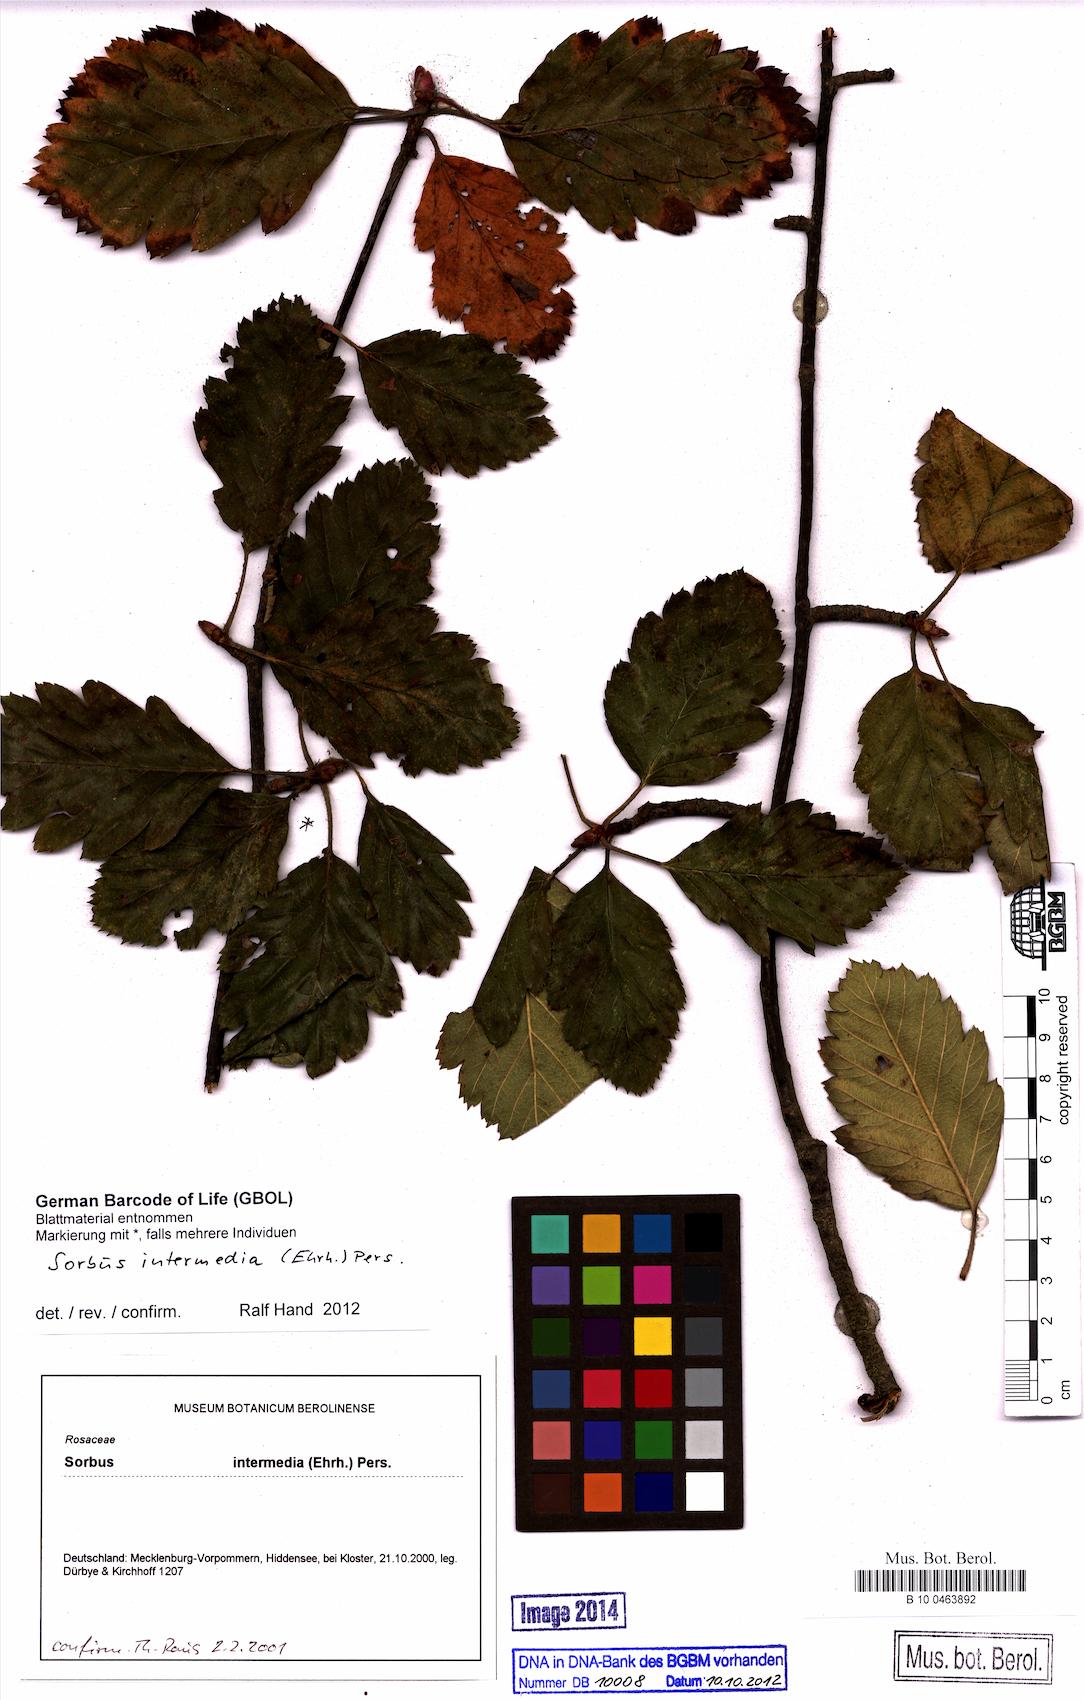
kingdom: Plantae
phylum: Tracheophyta
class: Magnoliopsida
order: Rosales
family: Rosaceae
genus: Scandosorbus
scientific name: Scandosorbus intermedia
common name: Swedish whitebeam
